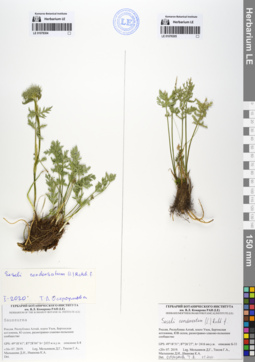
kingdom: Plantae
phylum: Tracheophyta
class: Magnoliopsida
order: Apiales
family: Apiaceae
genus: Seseli
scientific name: Seseli condensatum
